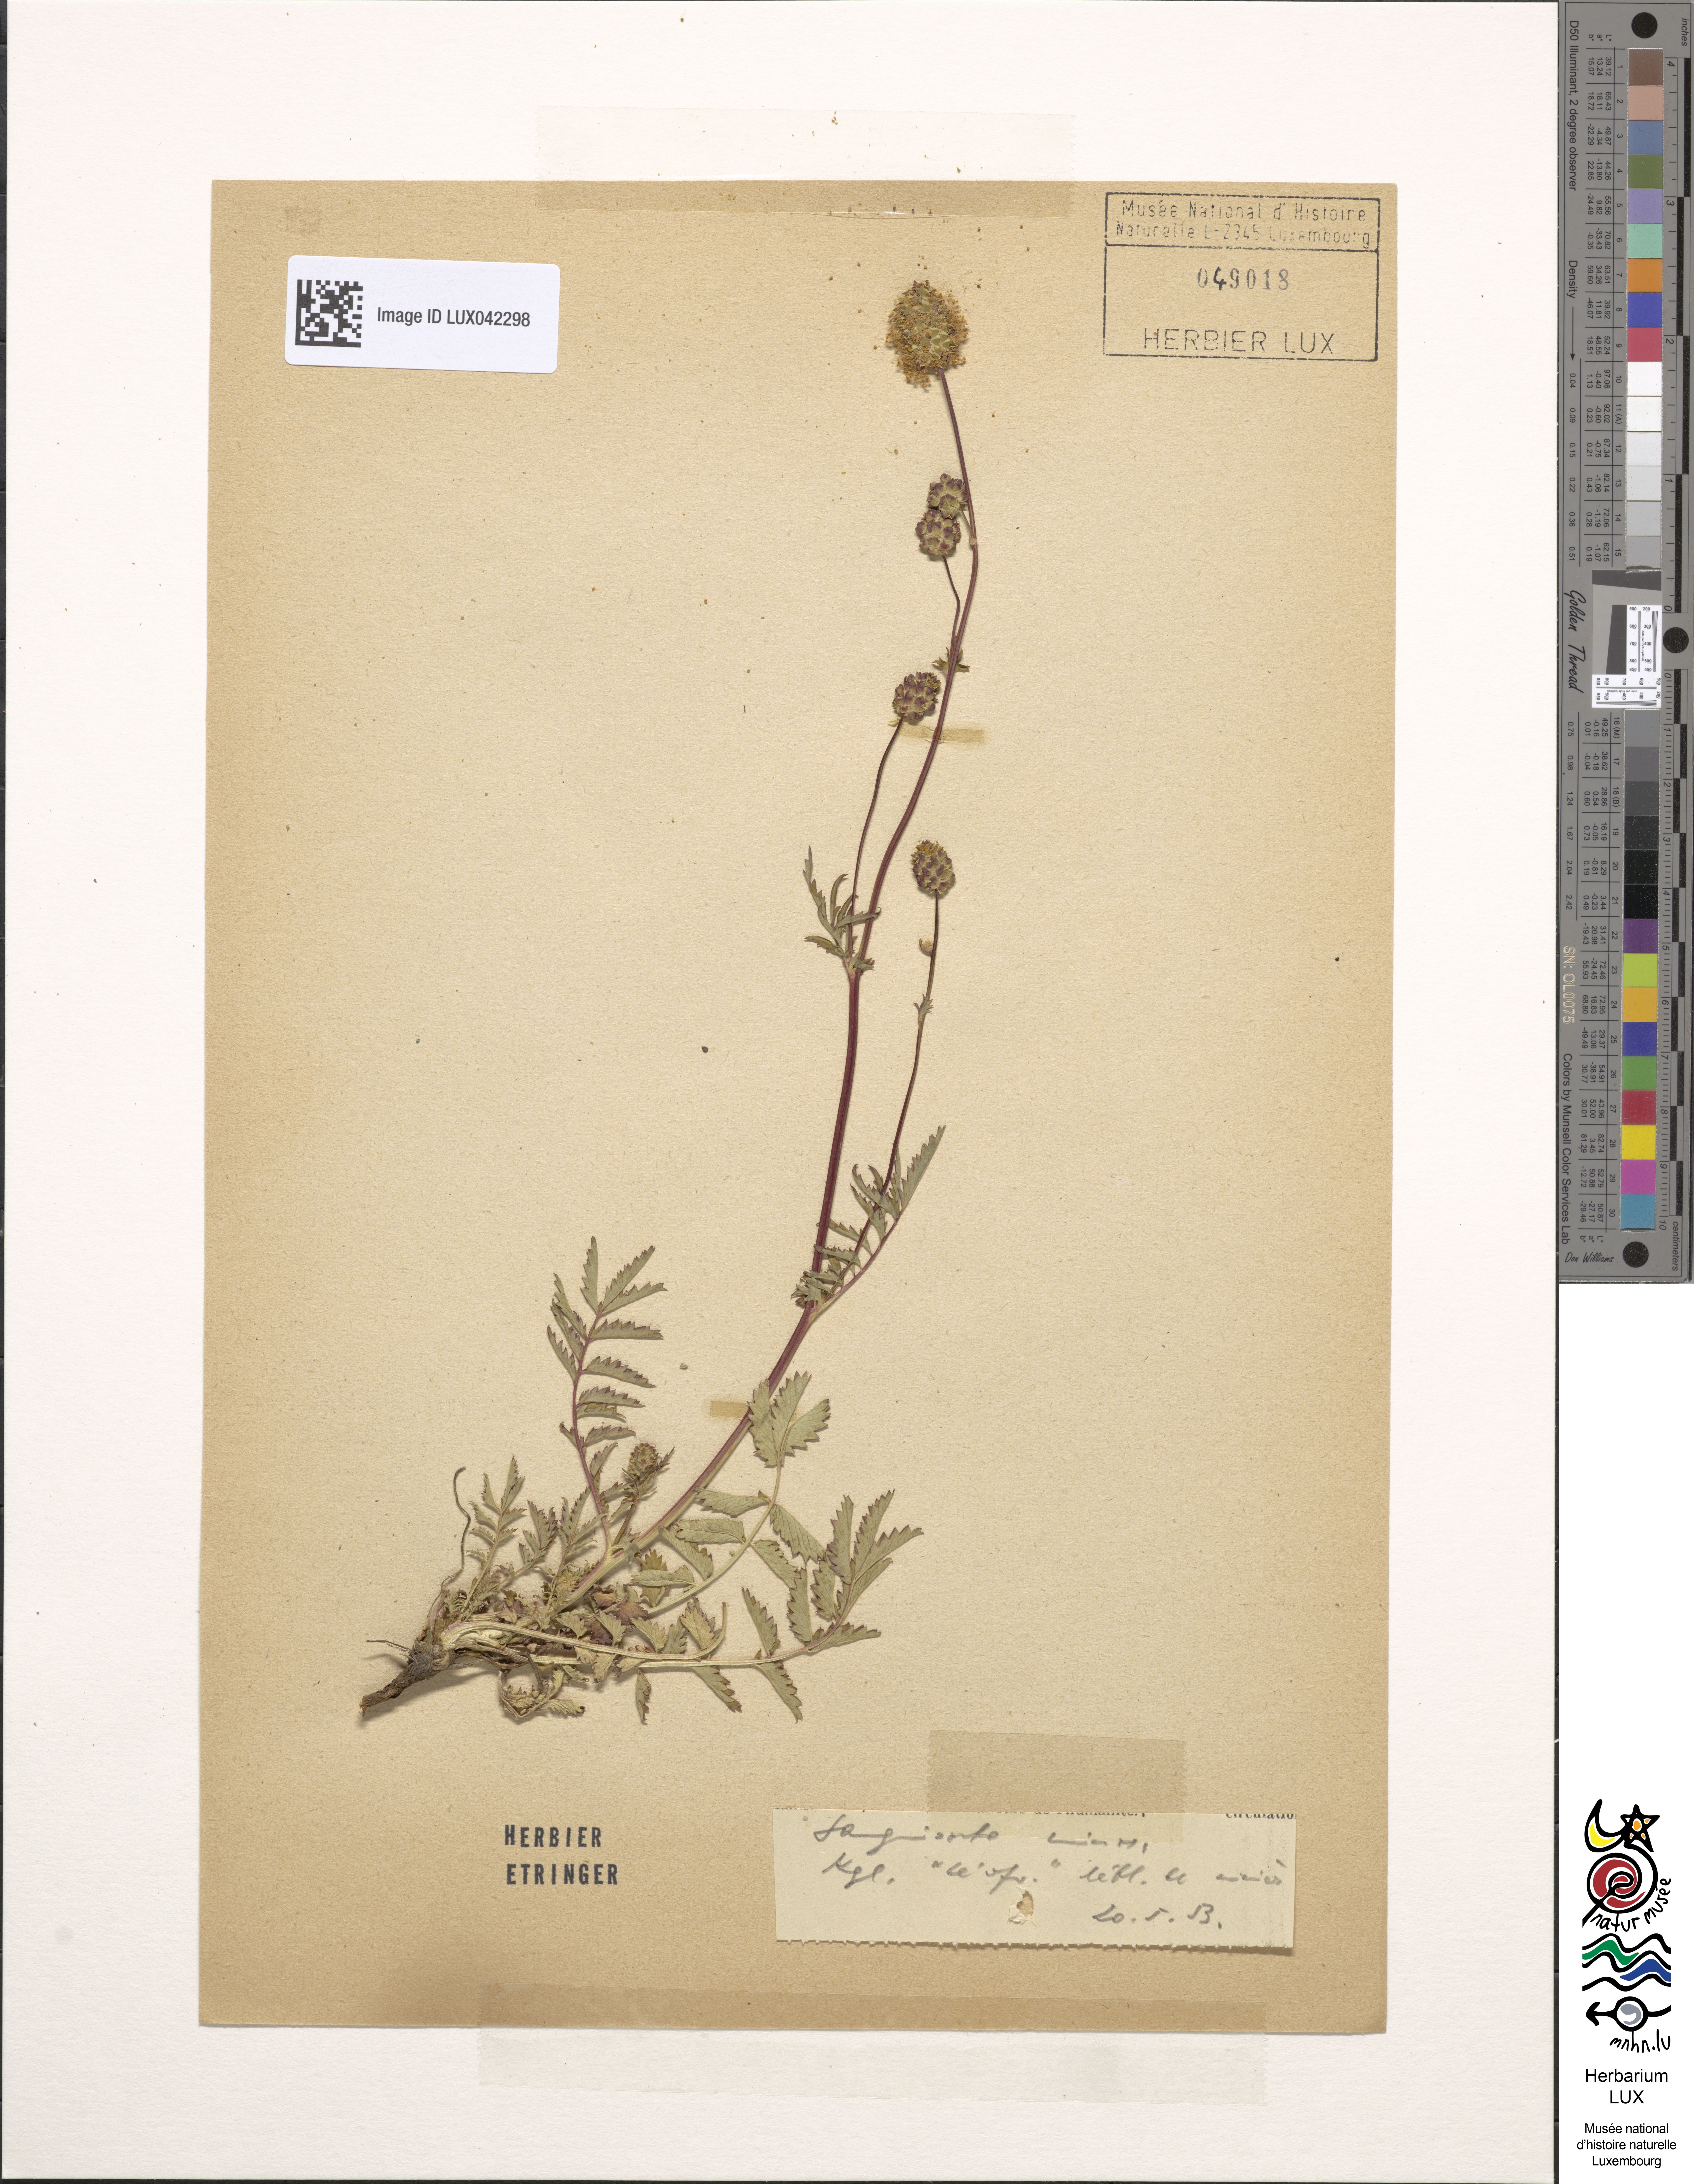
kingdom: Plantae
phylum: Tracheophyta
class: Magnoliopsida
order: Rosales
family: Rosaceae
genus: Poterium
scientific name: Poterium sanguisorba
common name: Salad burnet
